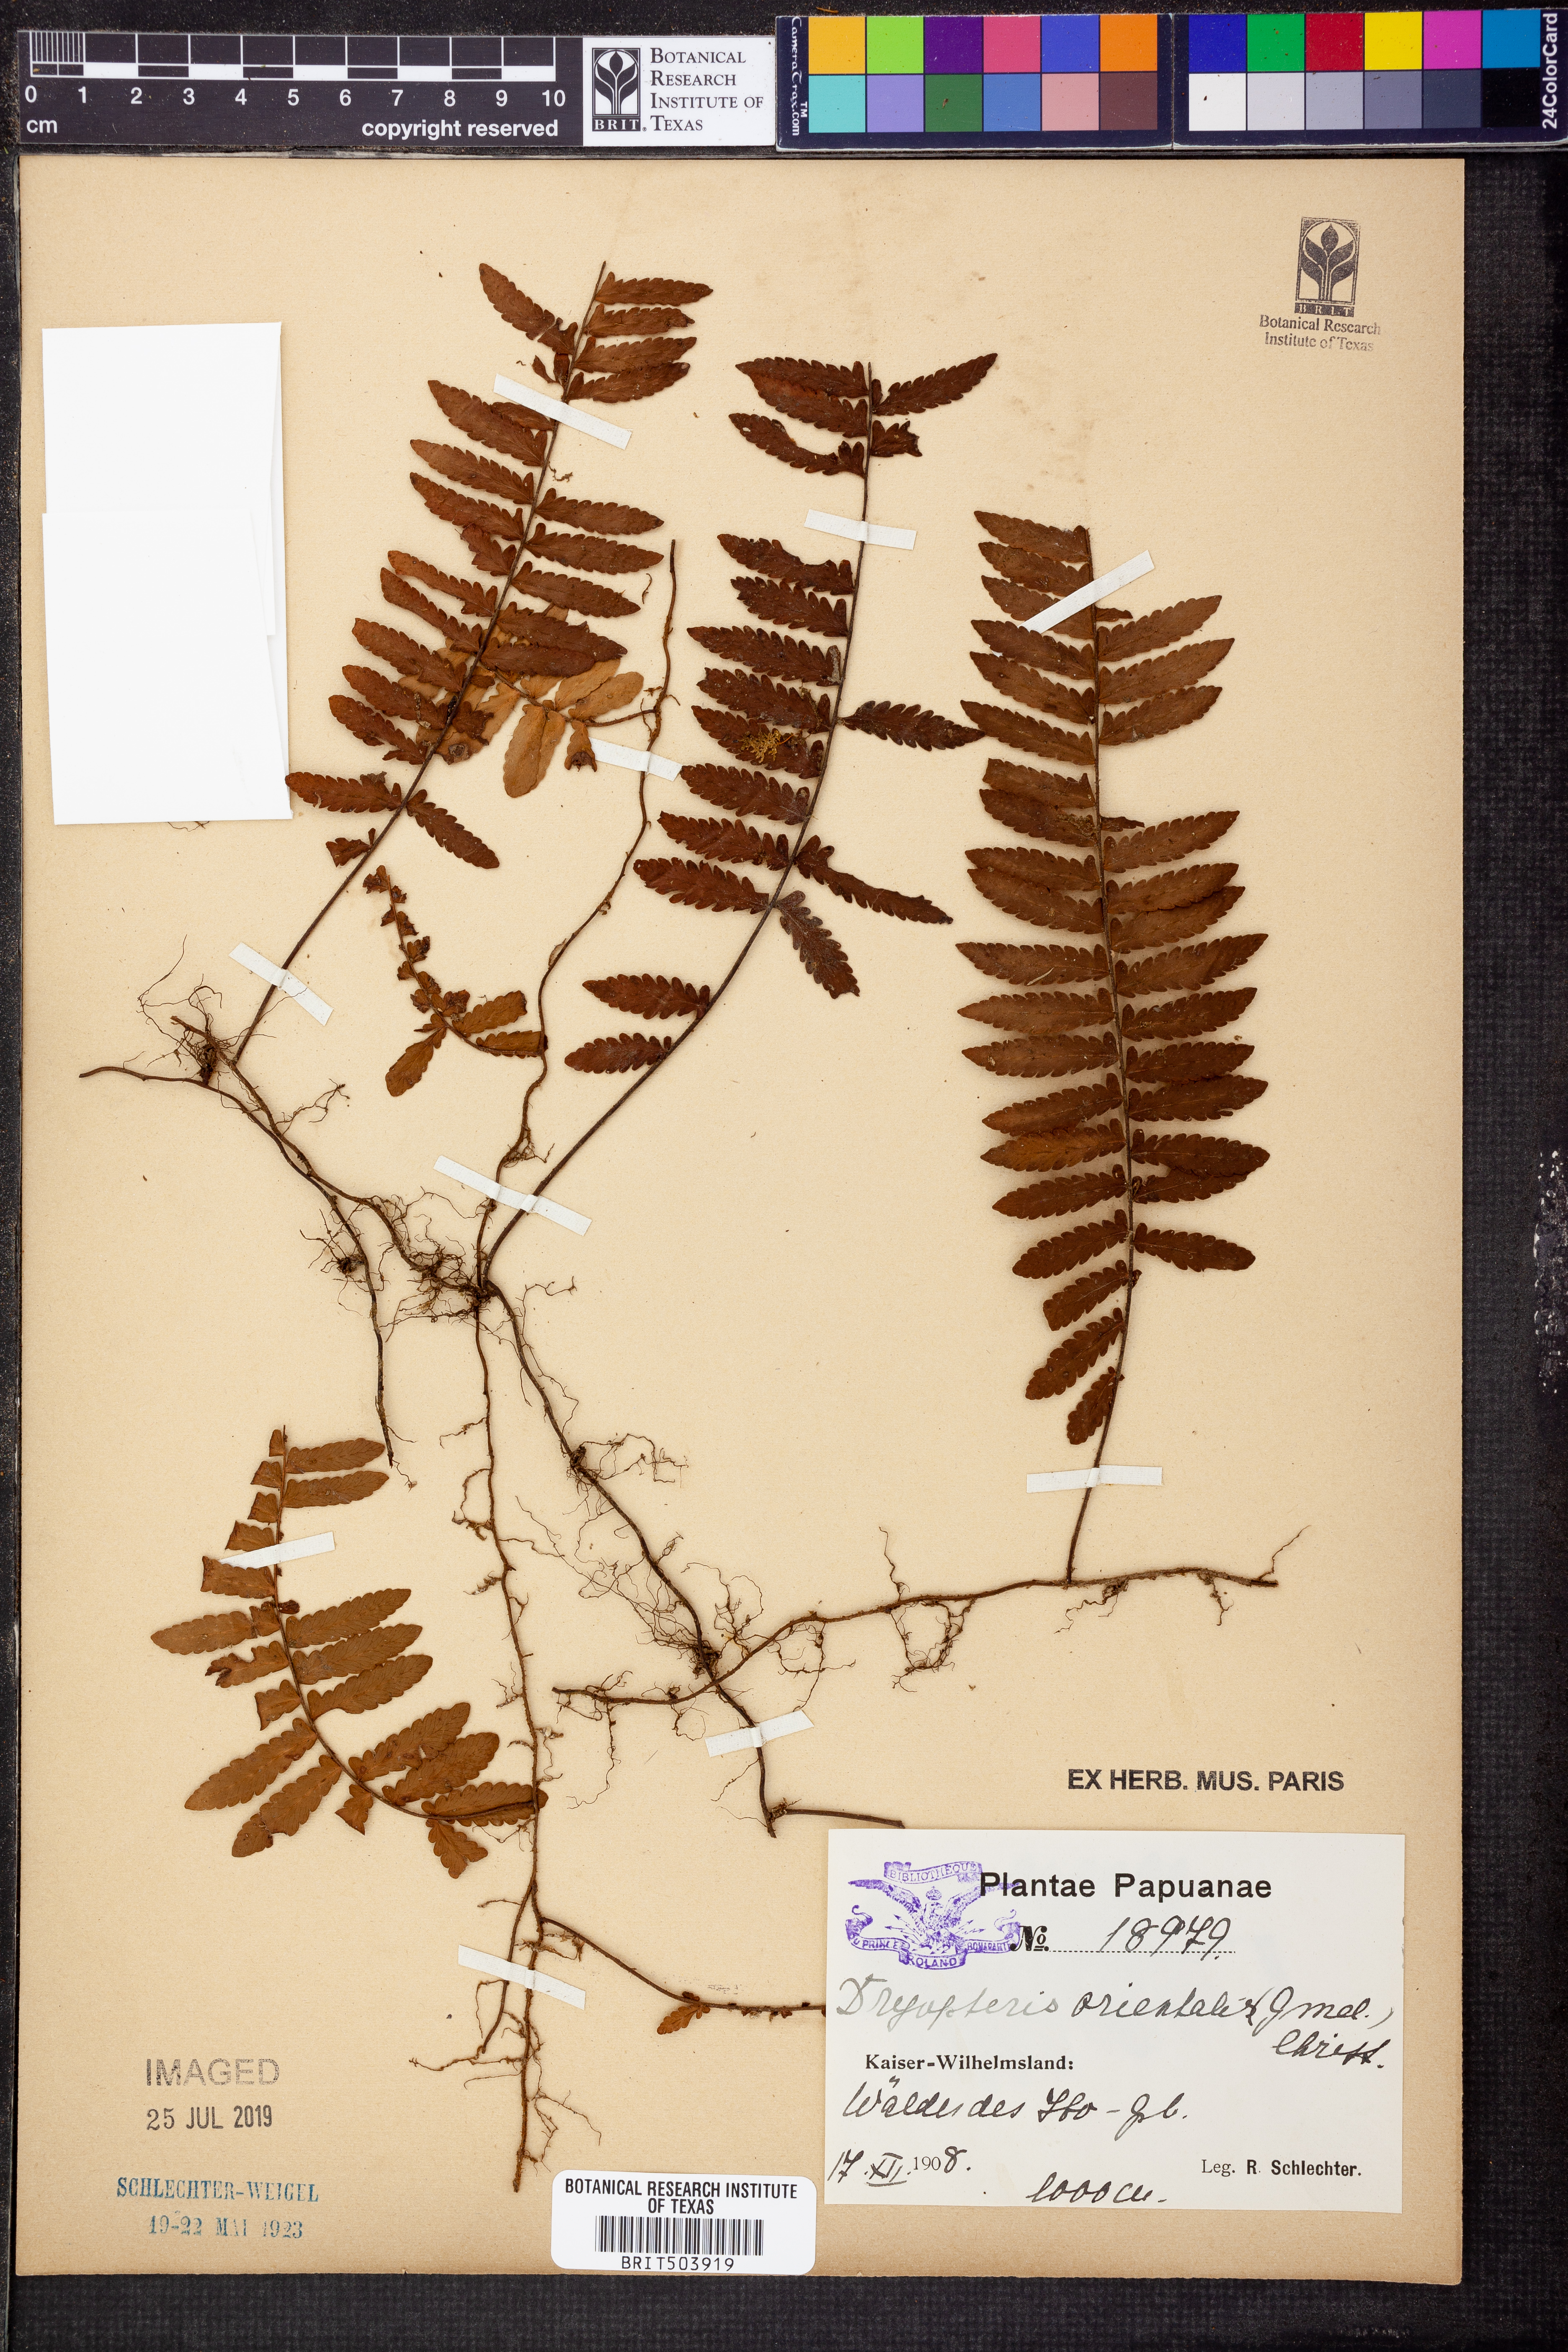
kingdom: Plantae
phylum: Tracheophyta
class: Polypodiopsida
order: Polypodiales
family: Tectariaceae
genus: Arthropteris
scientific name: Arthropteris orientalis
